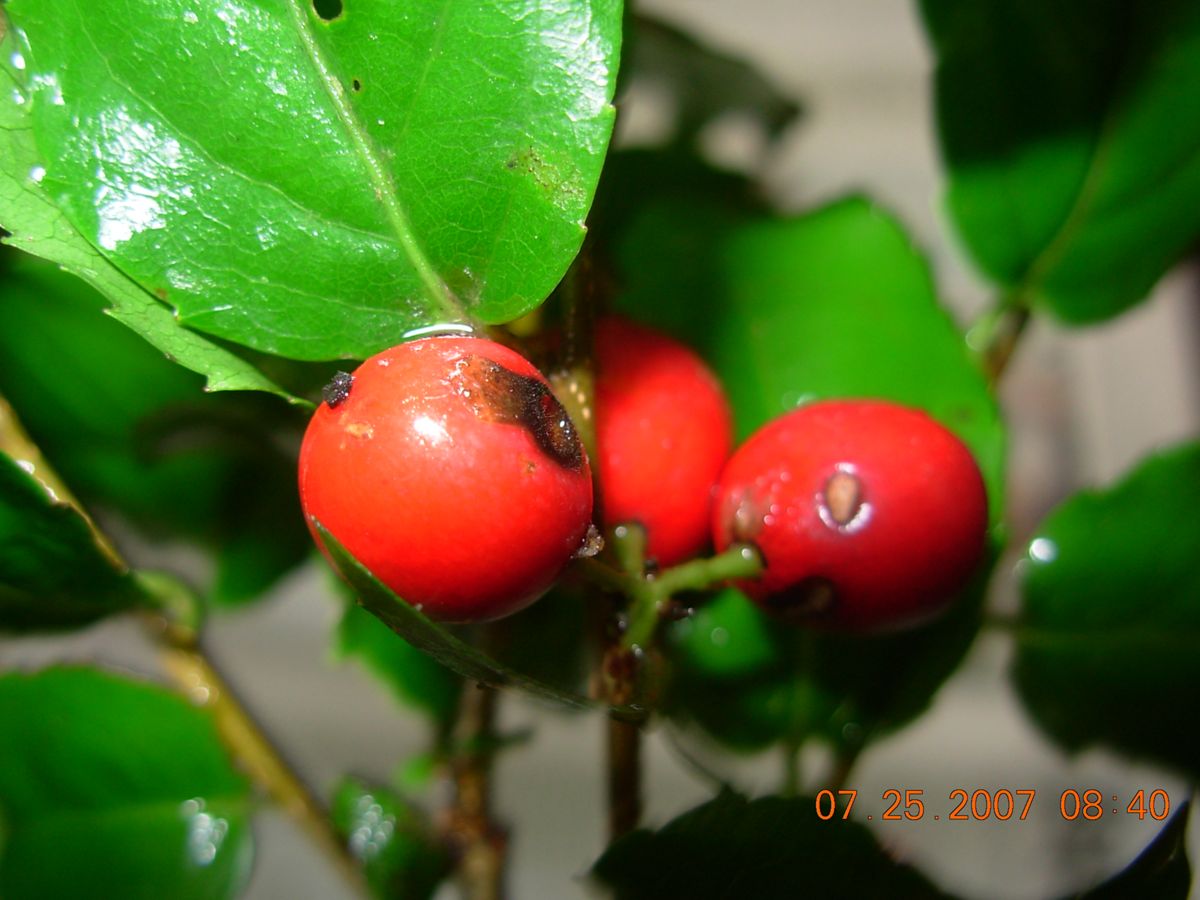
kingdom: Plantae
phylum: Tracheophyta
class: Magnoliopsida
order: Malpighiales
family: Salicaceae
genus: Xylosma
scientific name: Xylosma quichensis
